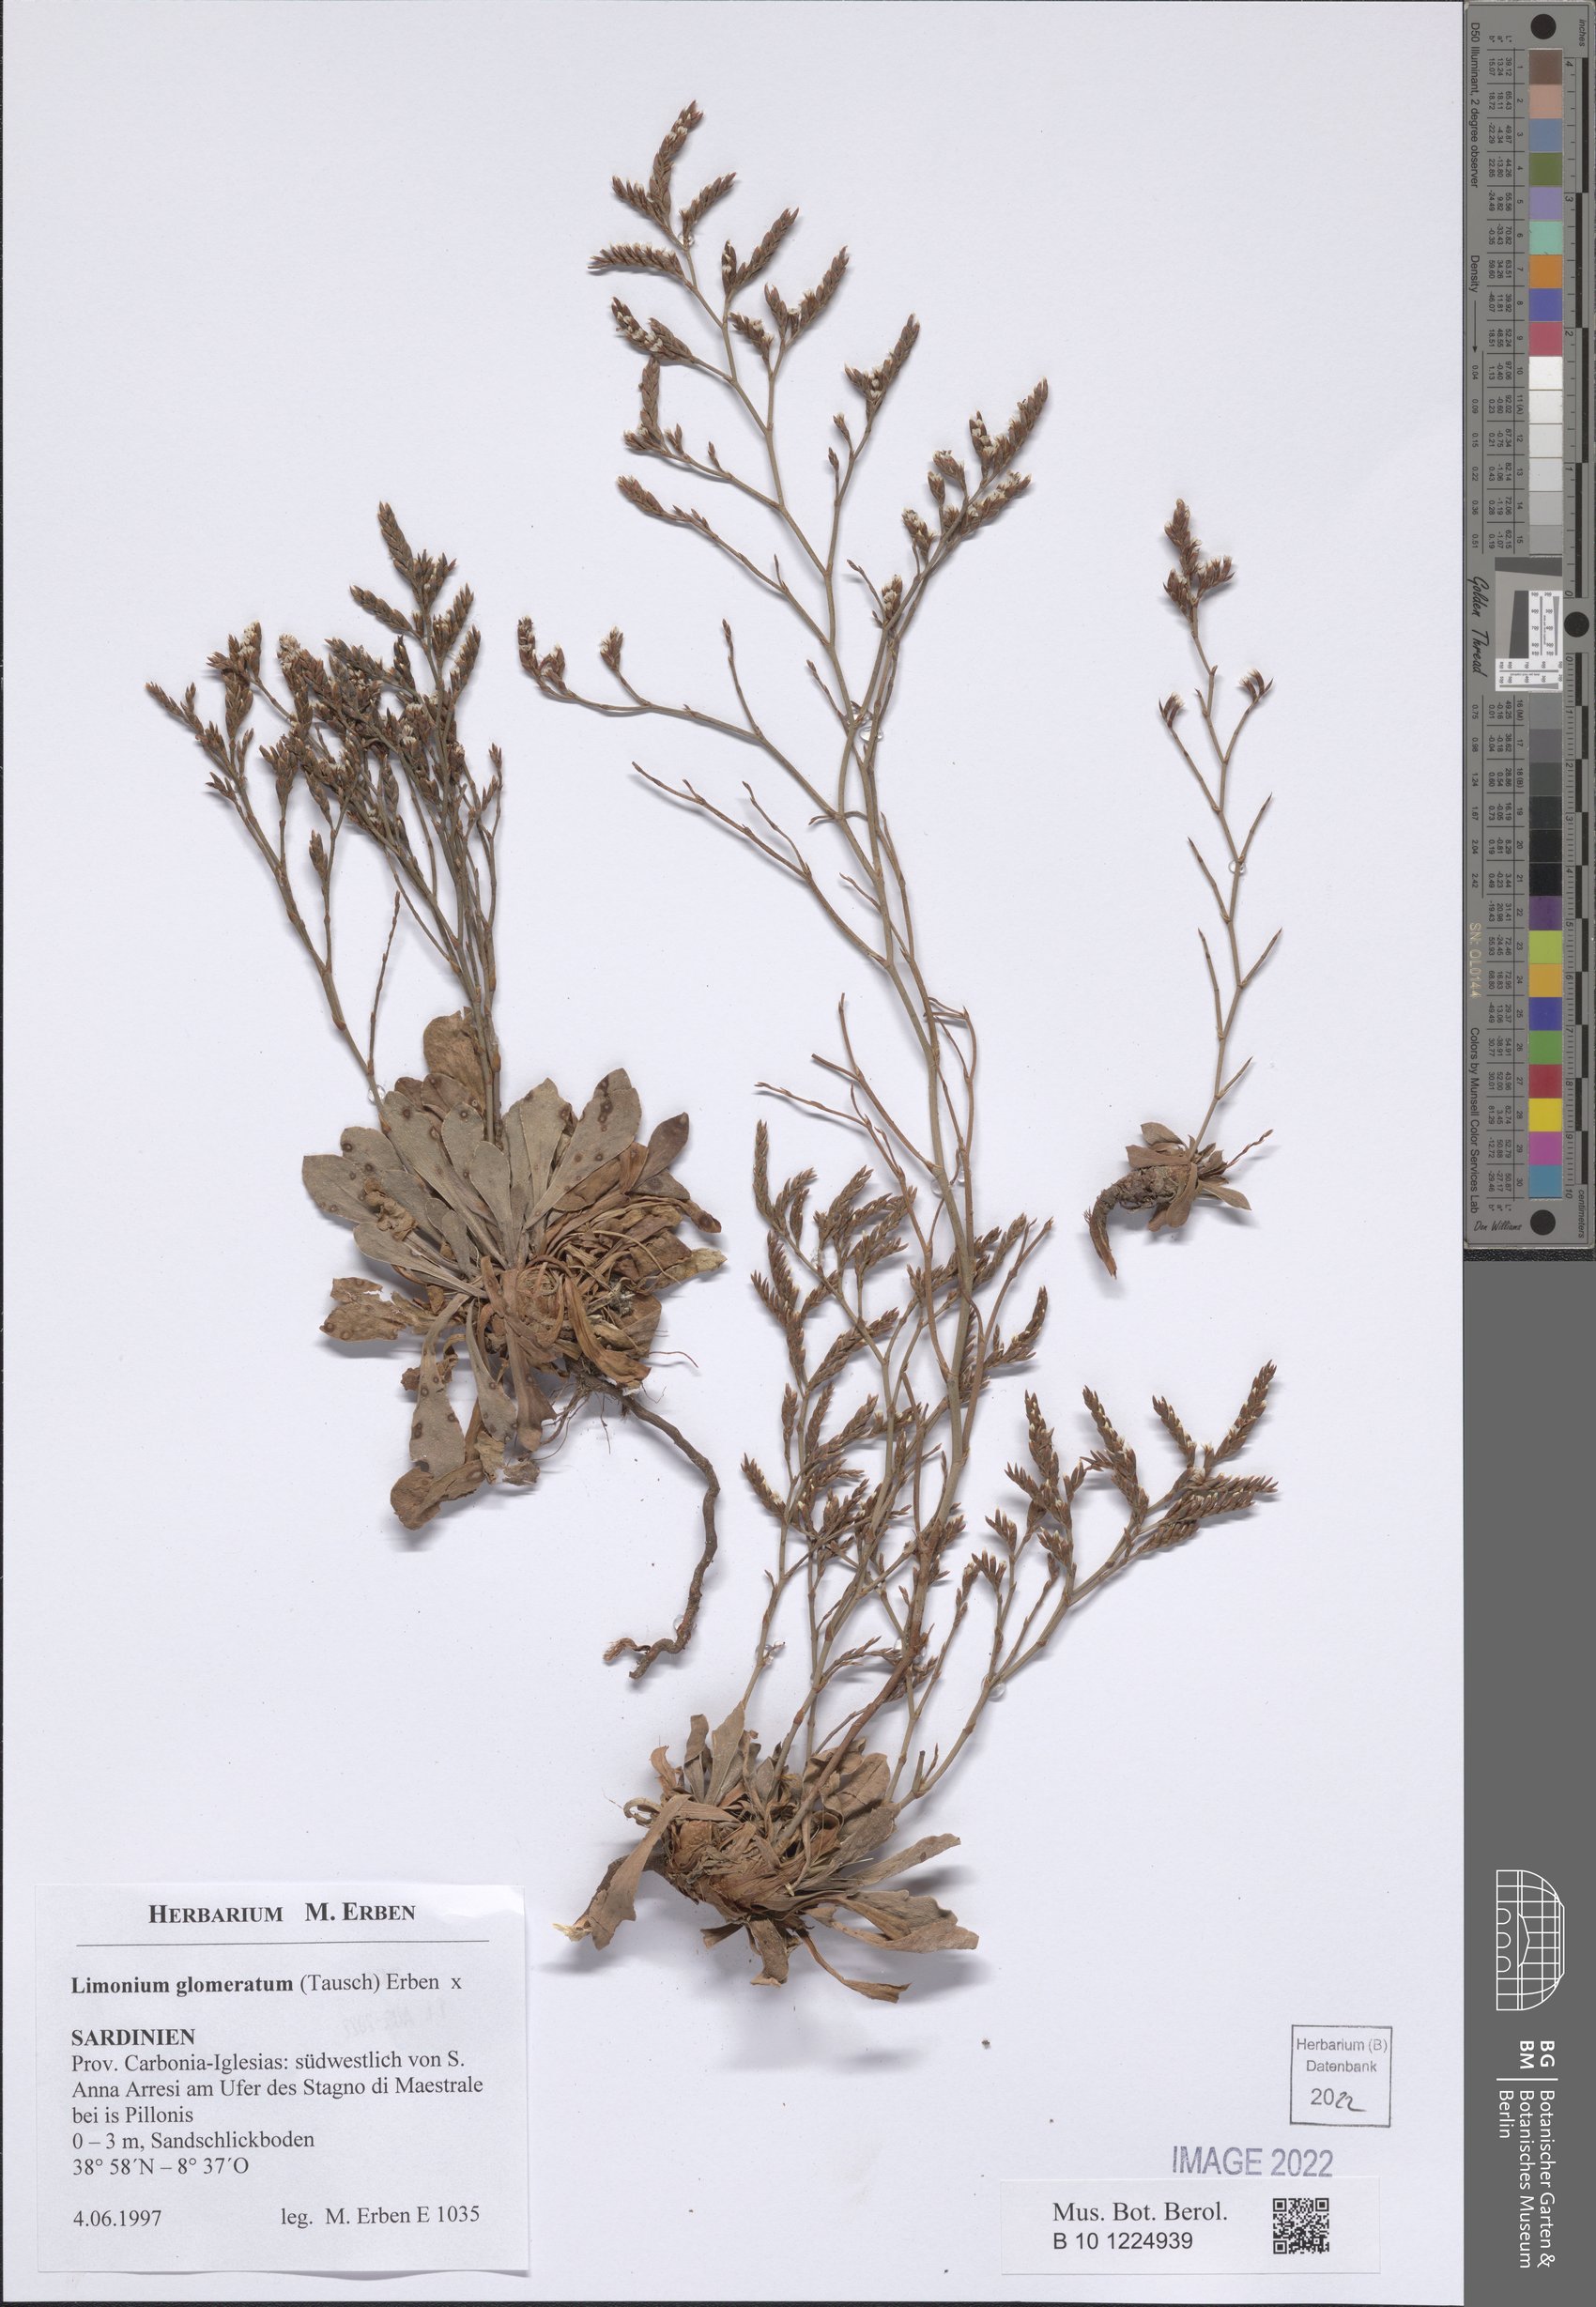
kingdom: Plantae
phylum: Tracheophyta
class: Magnoliopsida
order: Caryophyllales
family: Plumbaginaceae
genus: Limonium
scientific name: Limonium glomeratum
